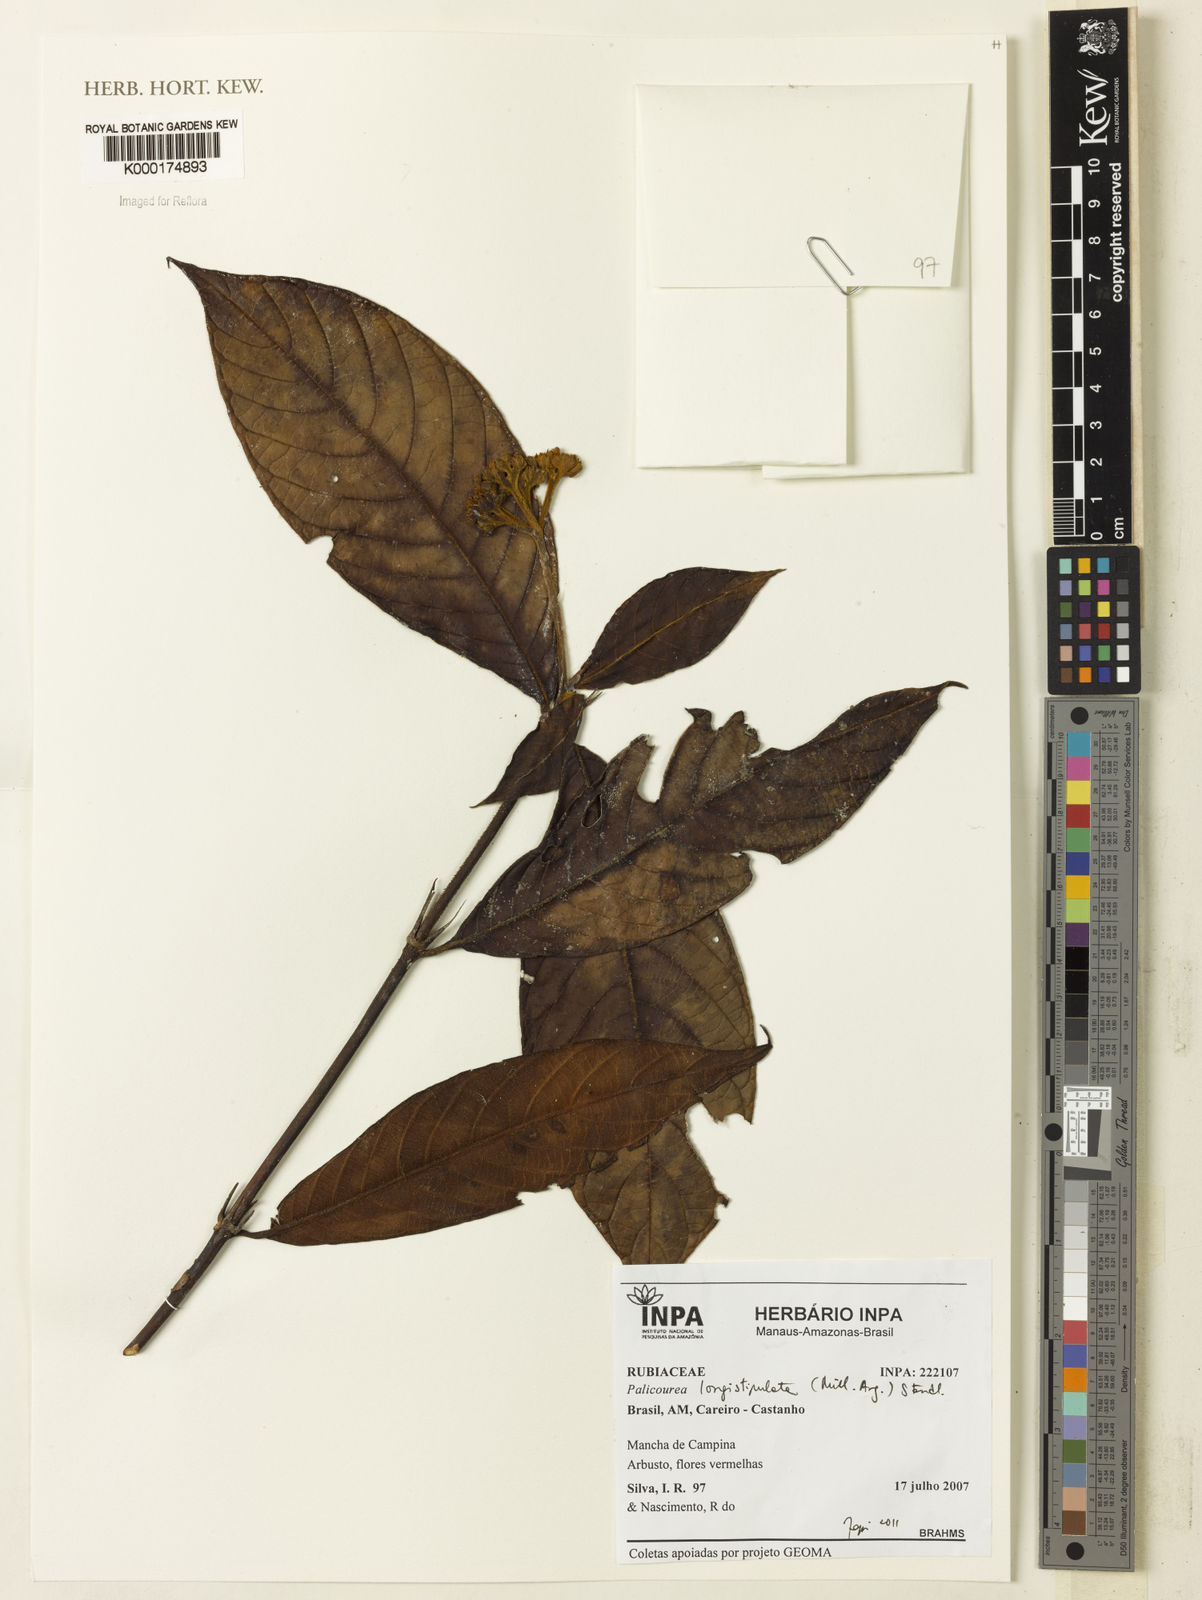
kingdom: Plantae
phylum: Tracheophyta
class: Magnoliopsida
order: Gentianales
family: Rubiaceae
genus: Palicourea
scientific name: Palicourea
